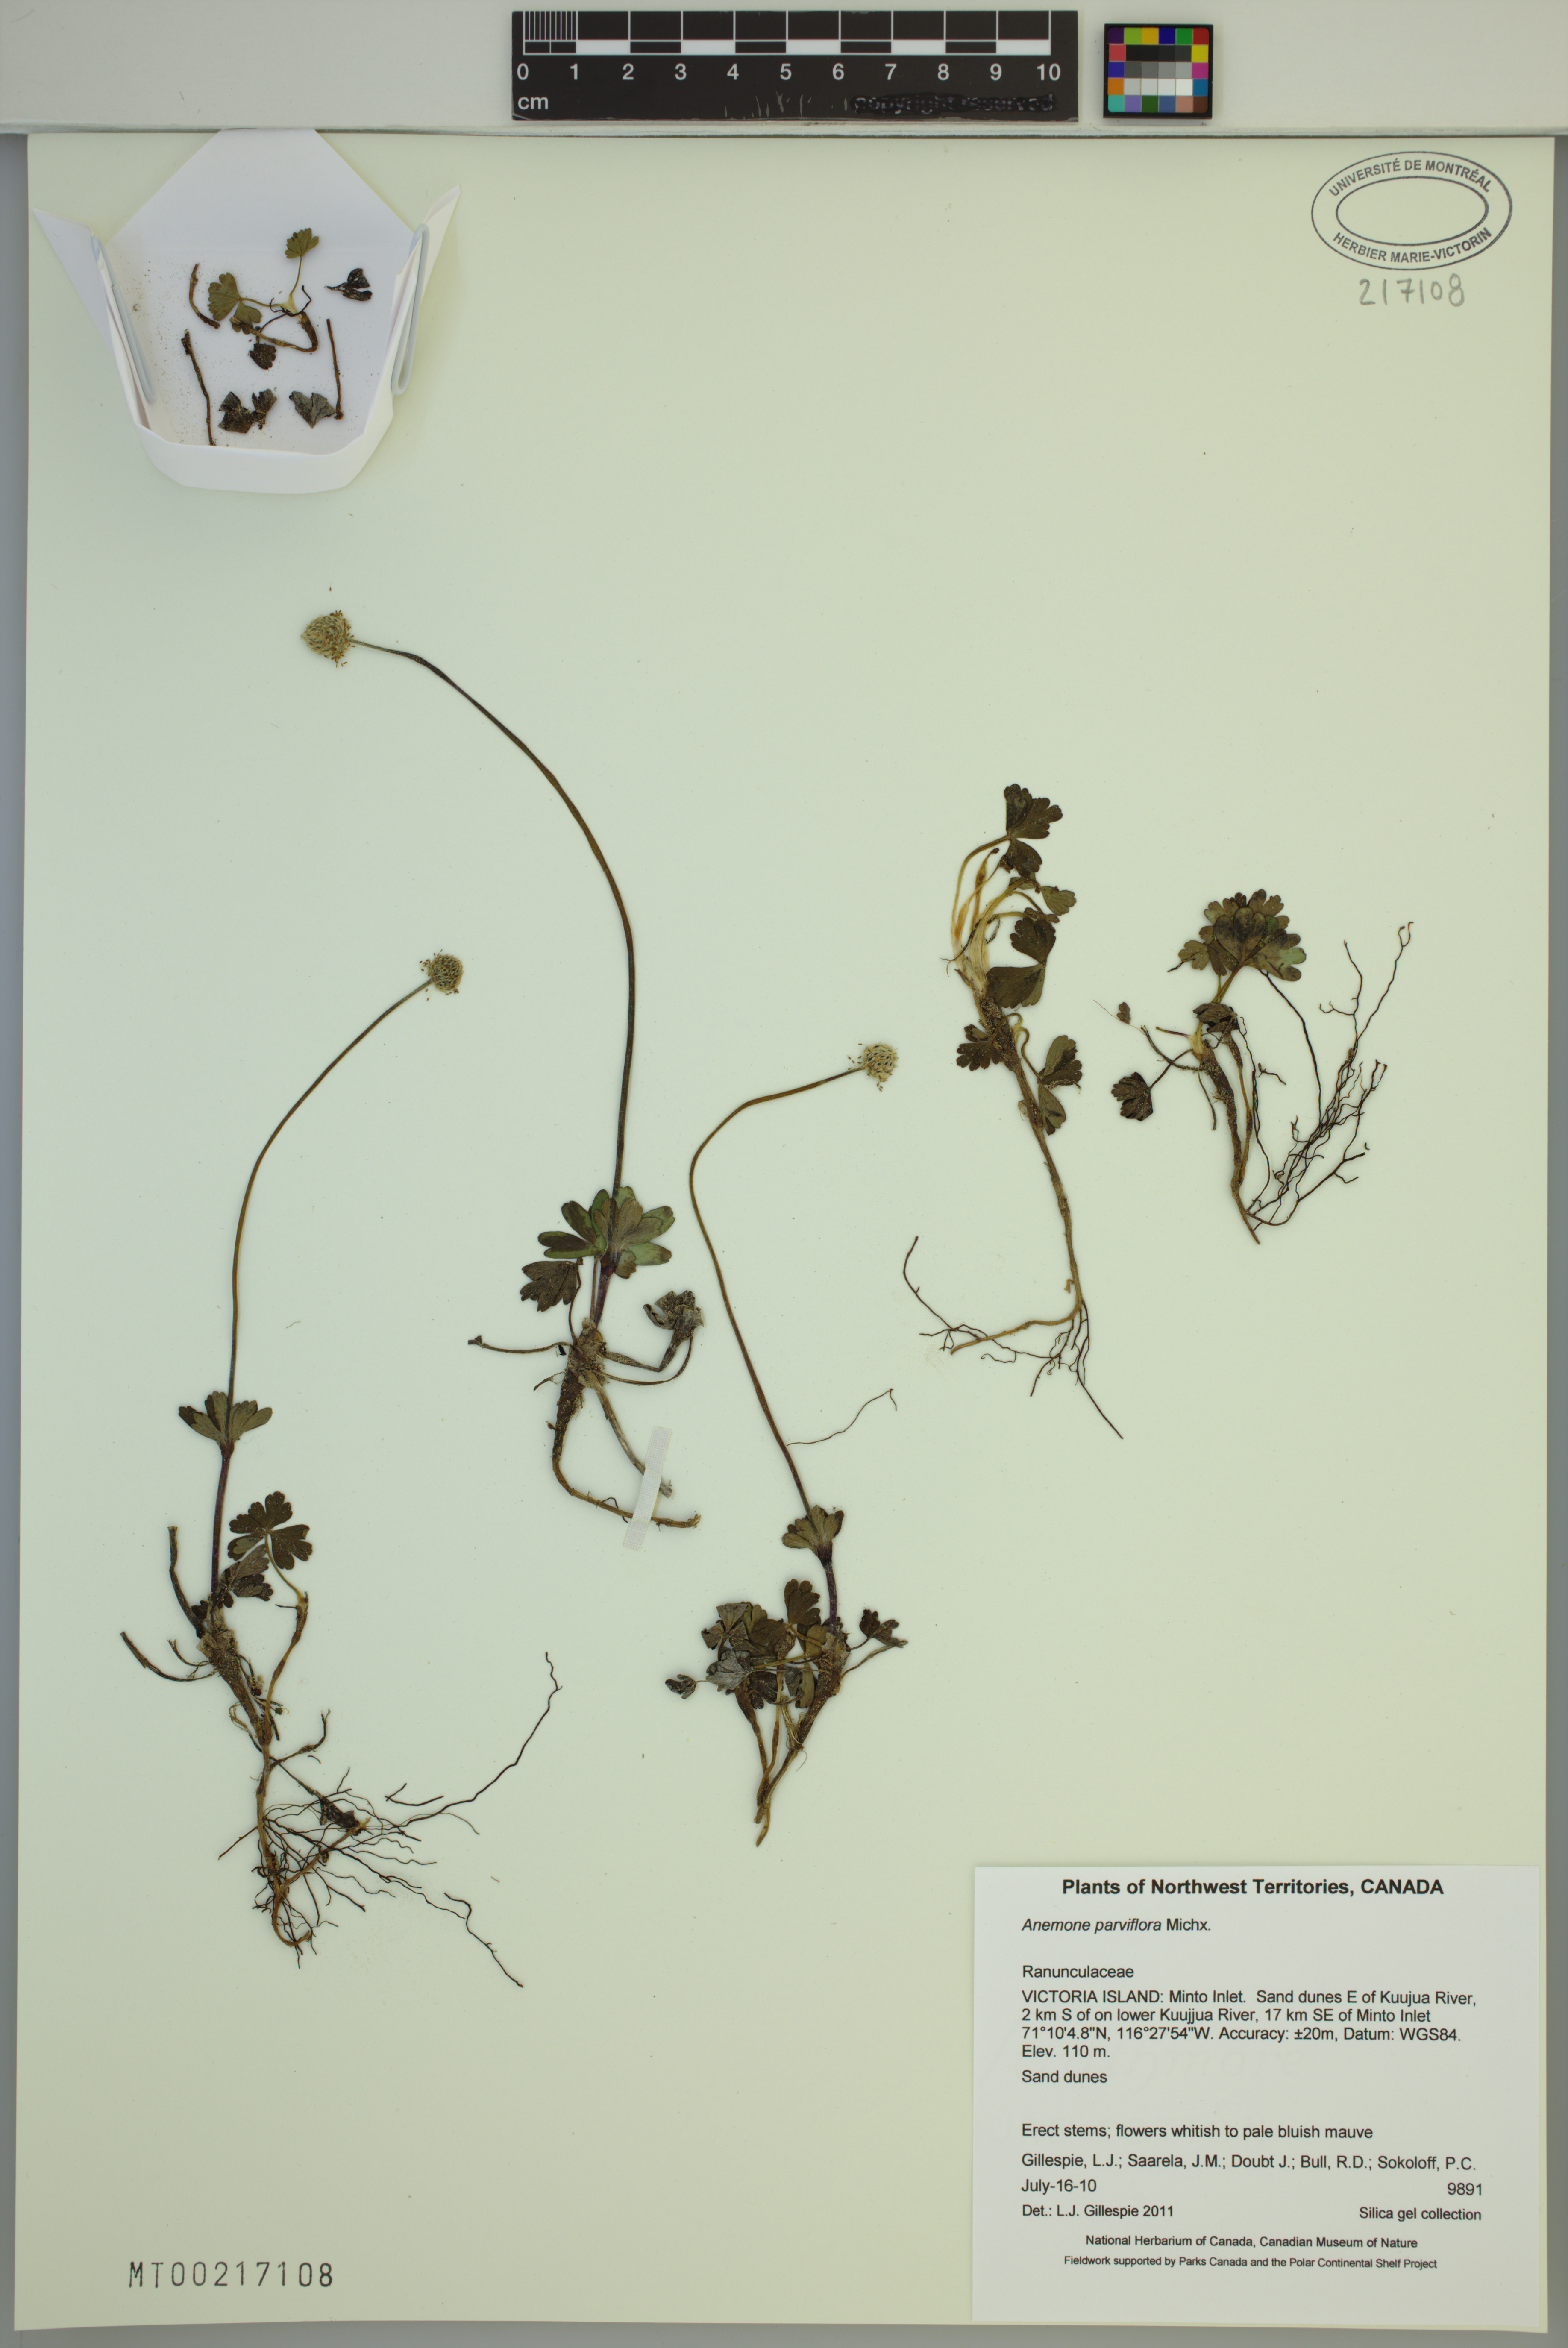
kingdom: Plantae
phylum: Tracheophyta
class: Magnoliopsida
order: Ranunculales
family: Ranunculaceae
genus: Anemone
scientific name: Anemone parviflora
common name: Northern anemone
